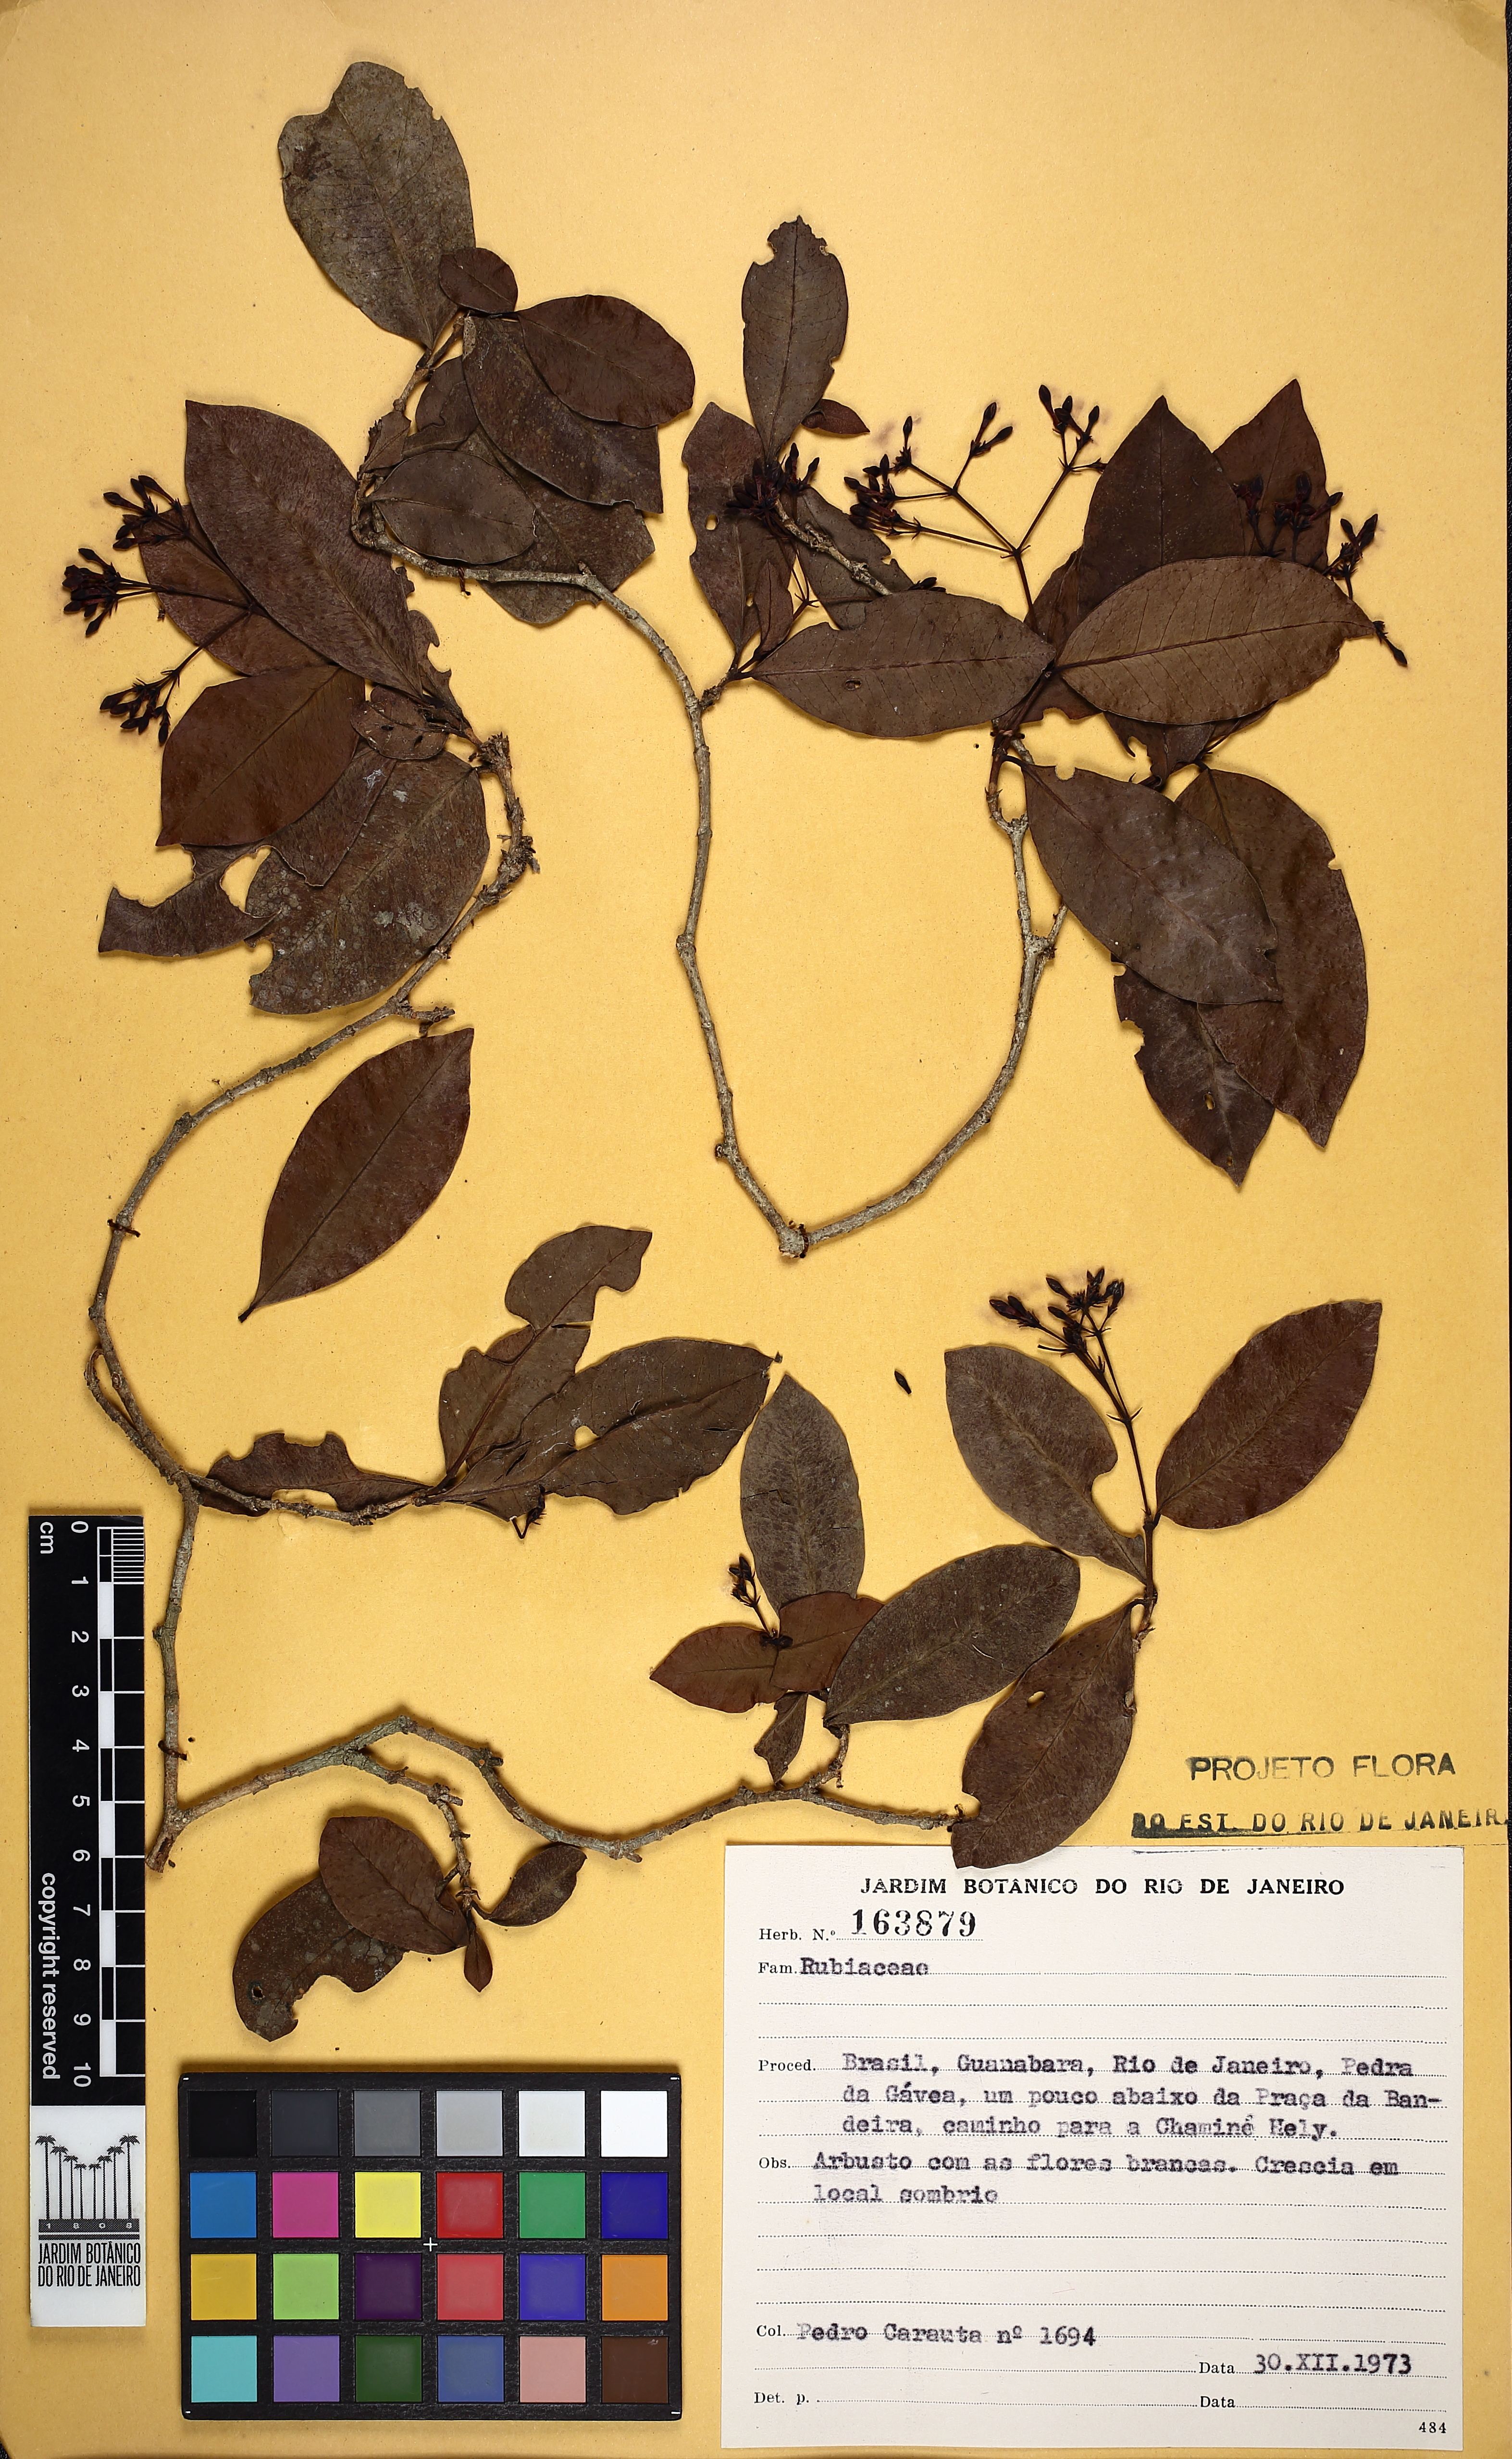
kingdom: Plantae
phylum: Tracheophyta
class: Magnoliopsida
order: Gentianales
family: Rubiaceae
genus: Ixora
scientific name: Ixora gardneriana
